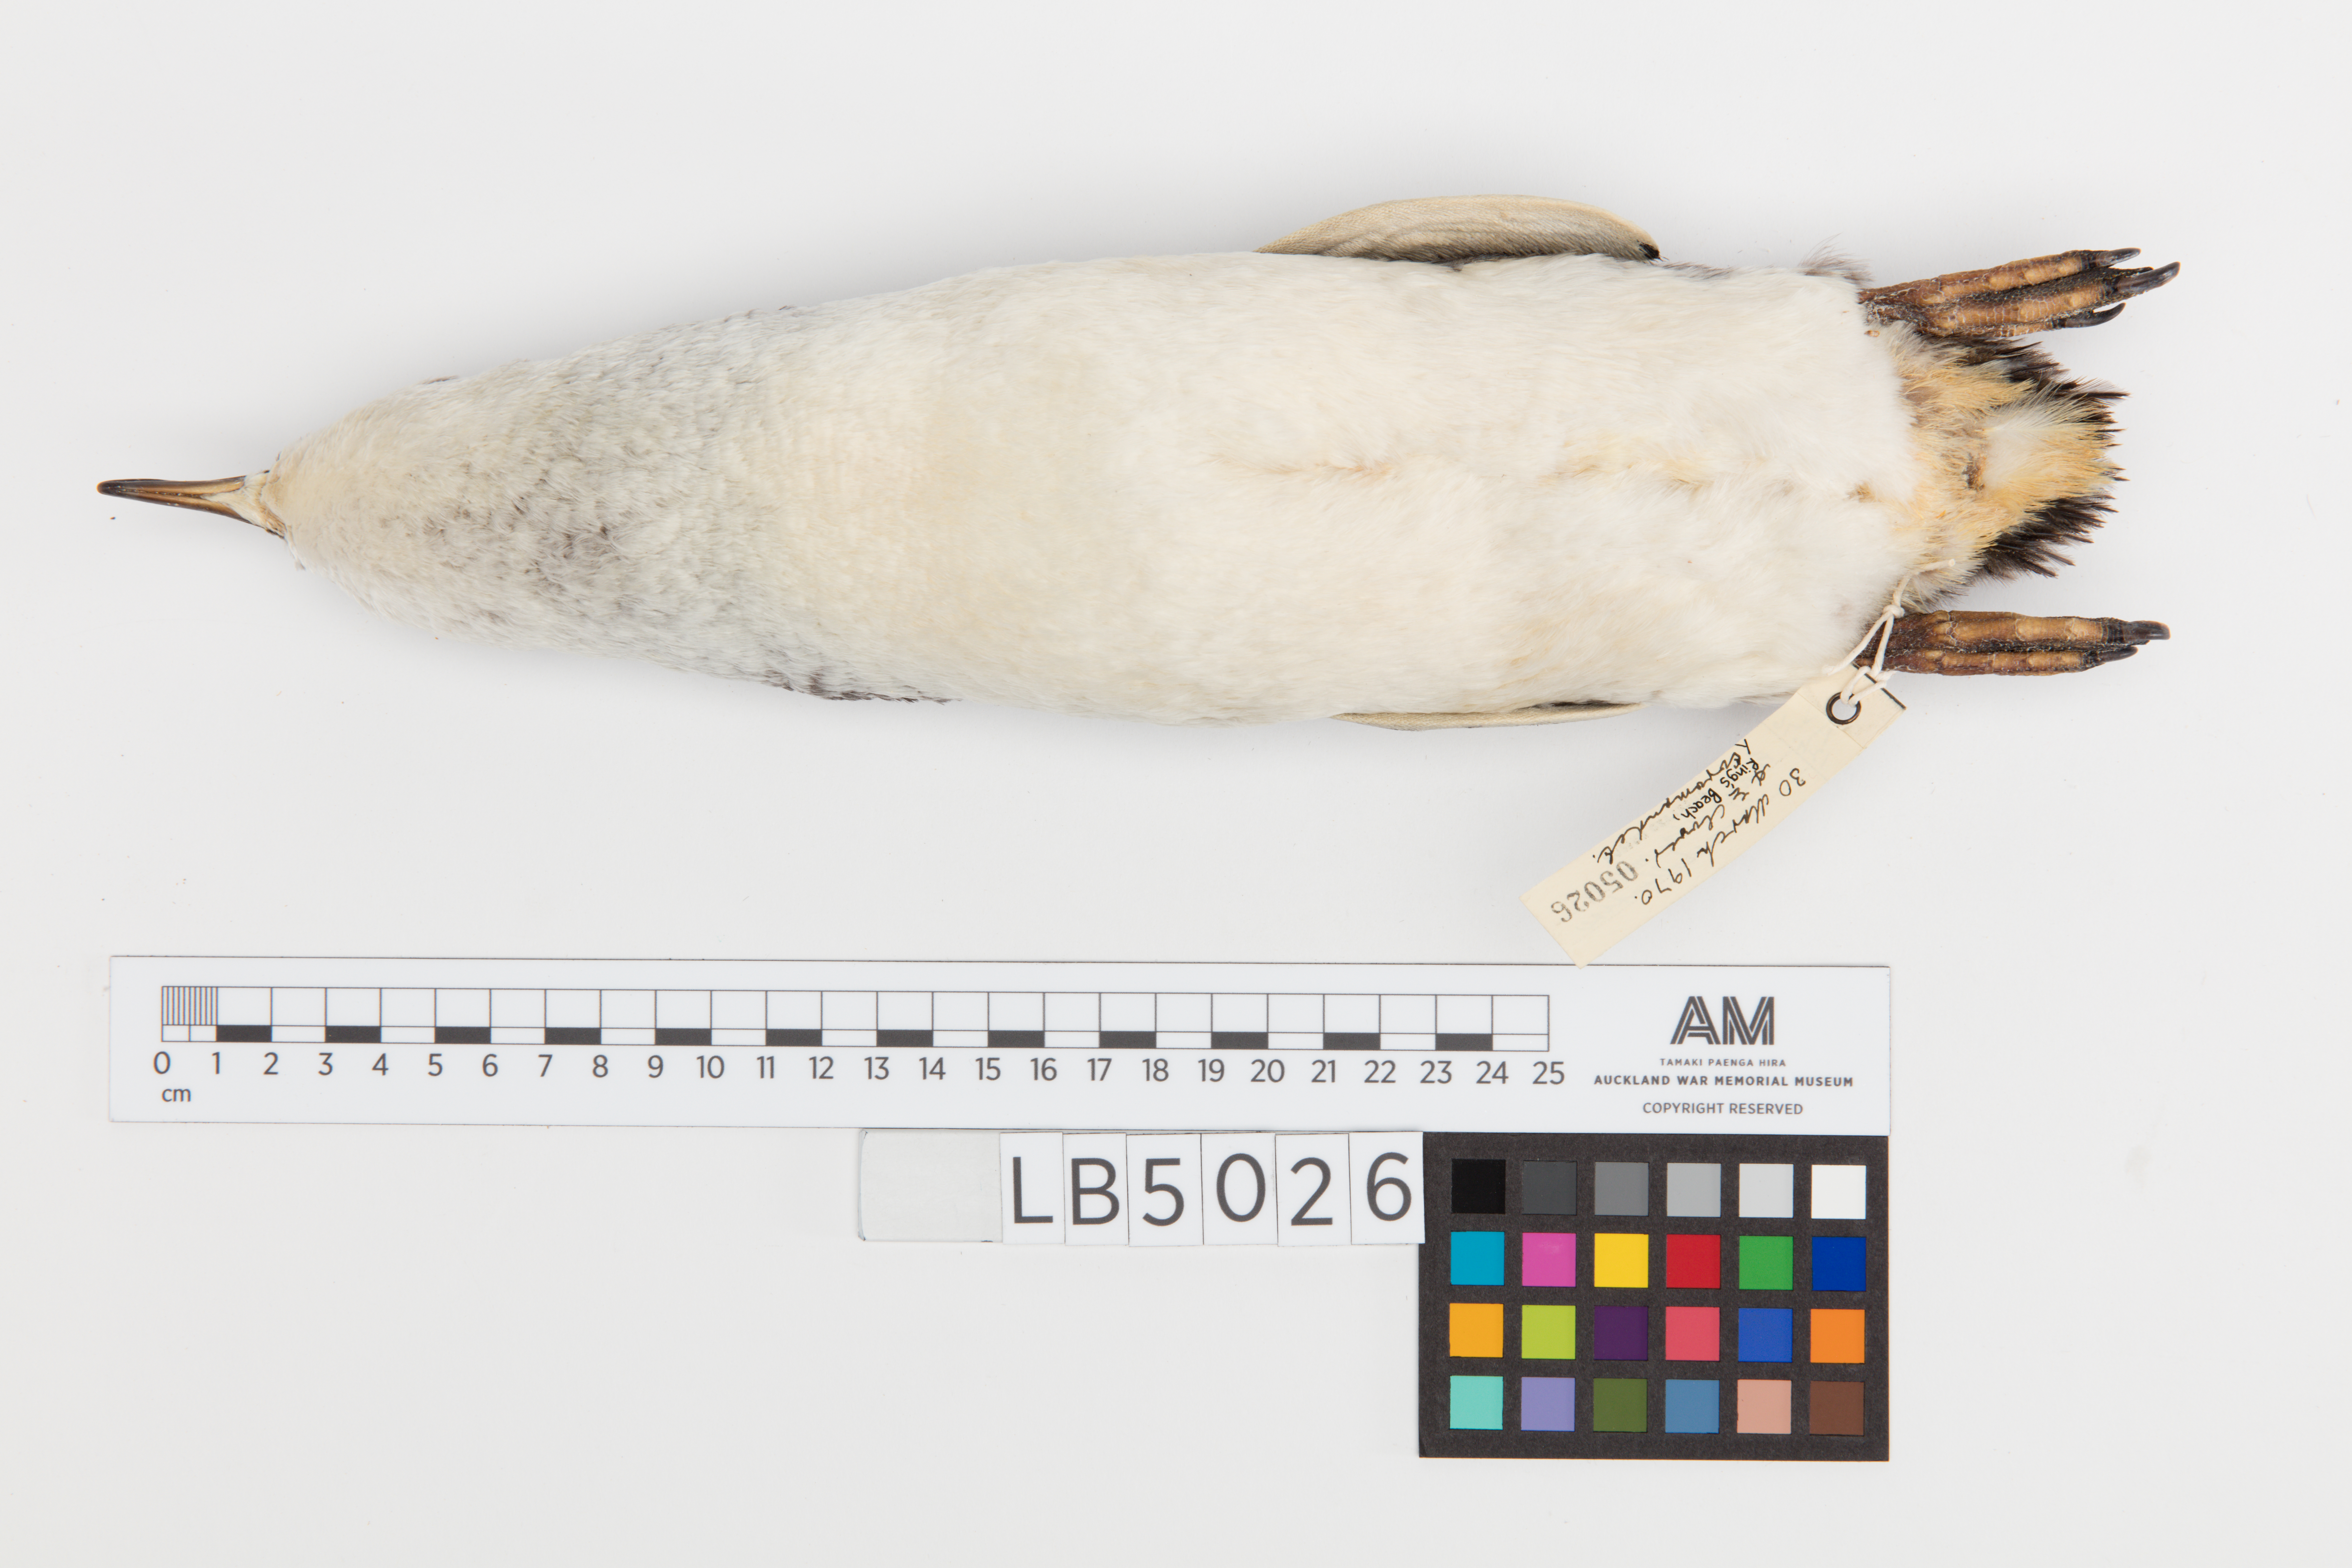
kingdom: Animalia
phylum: Chordata
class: Aves
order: Sphenisciformes
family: Spheniscidae
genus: Eudyptula
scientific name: Eudyptula minor
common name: Little penguin
